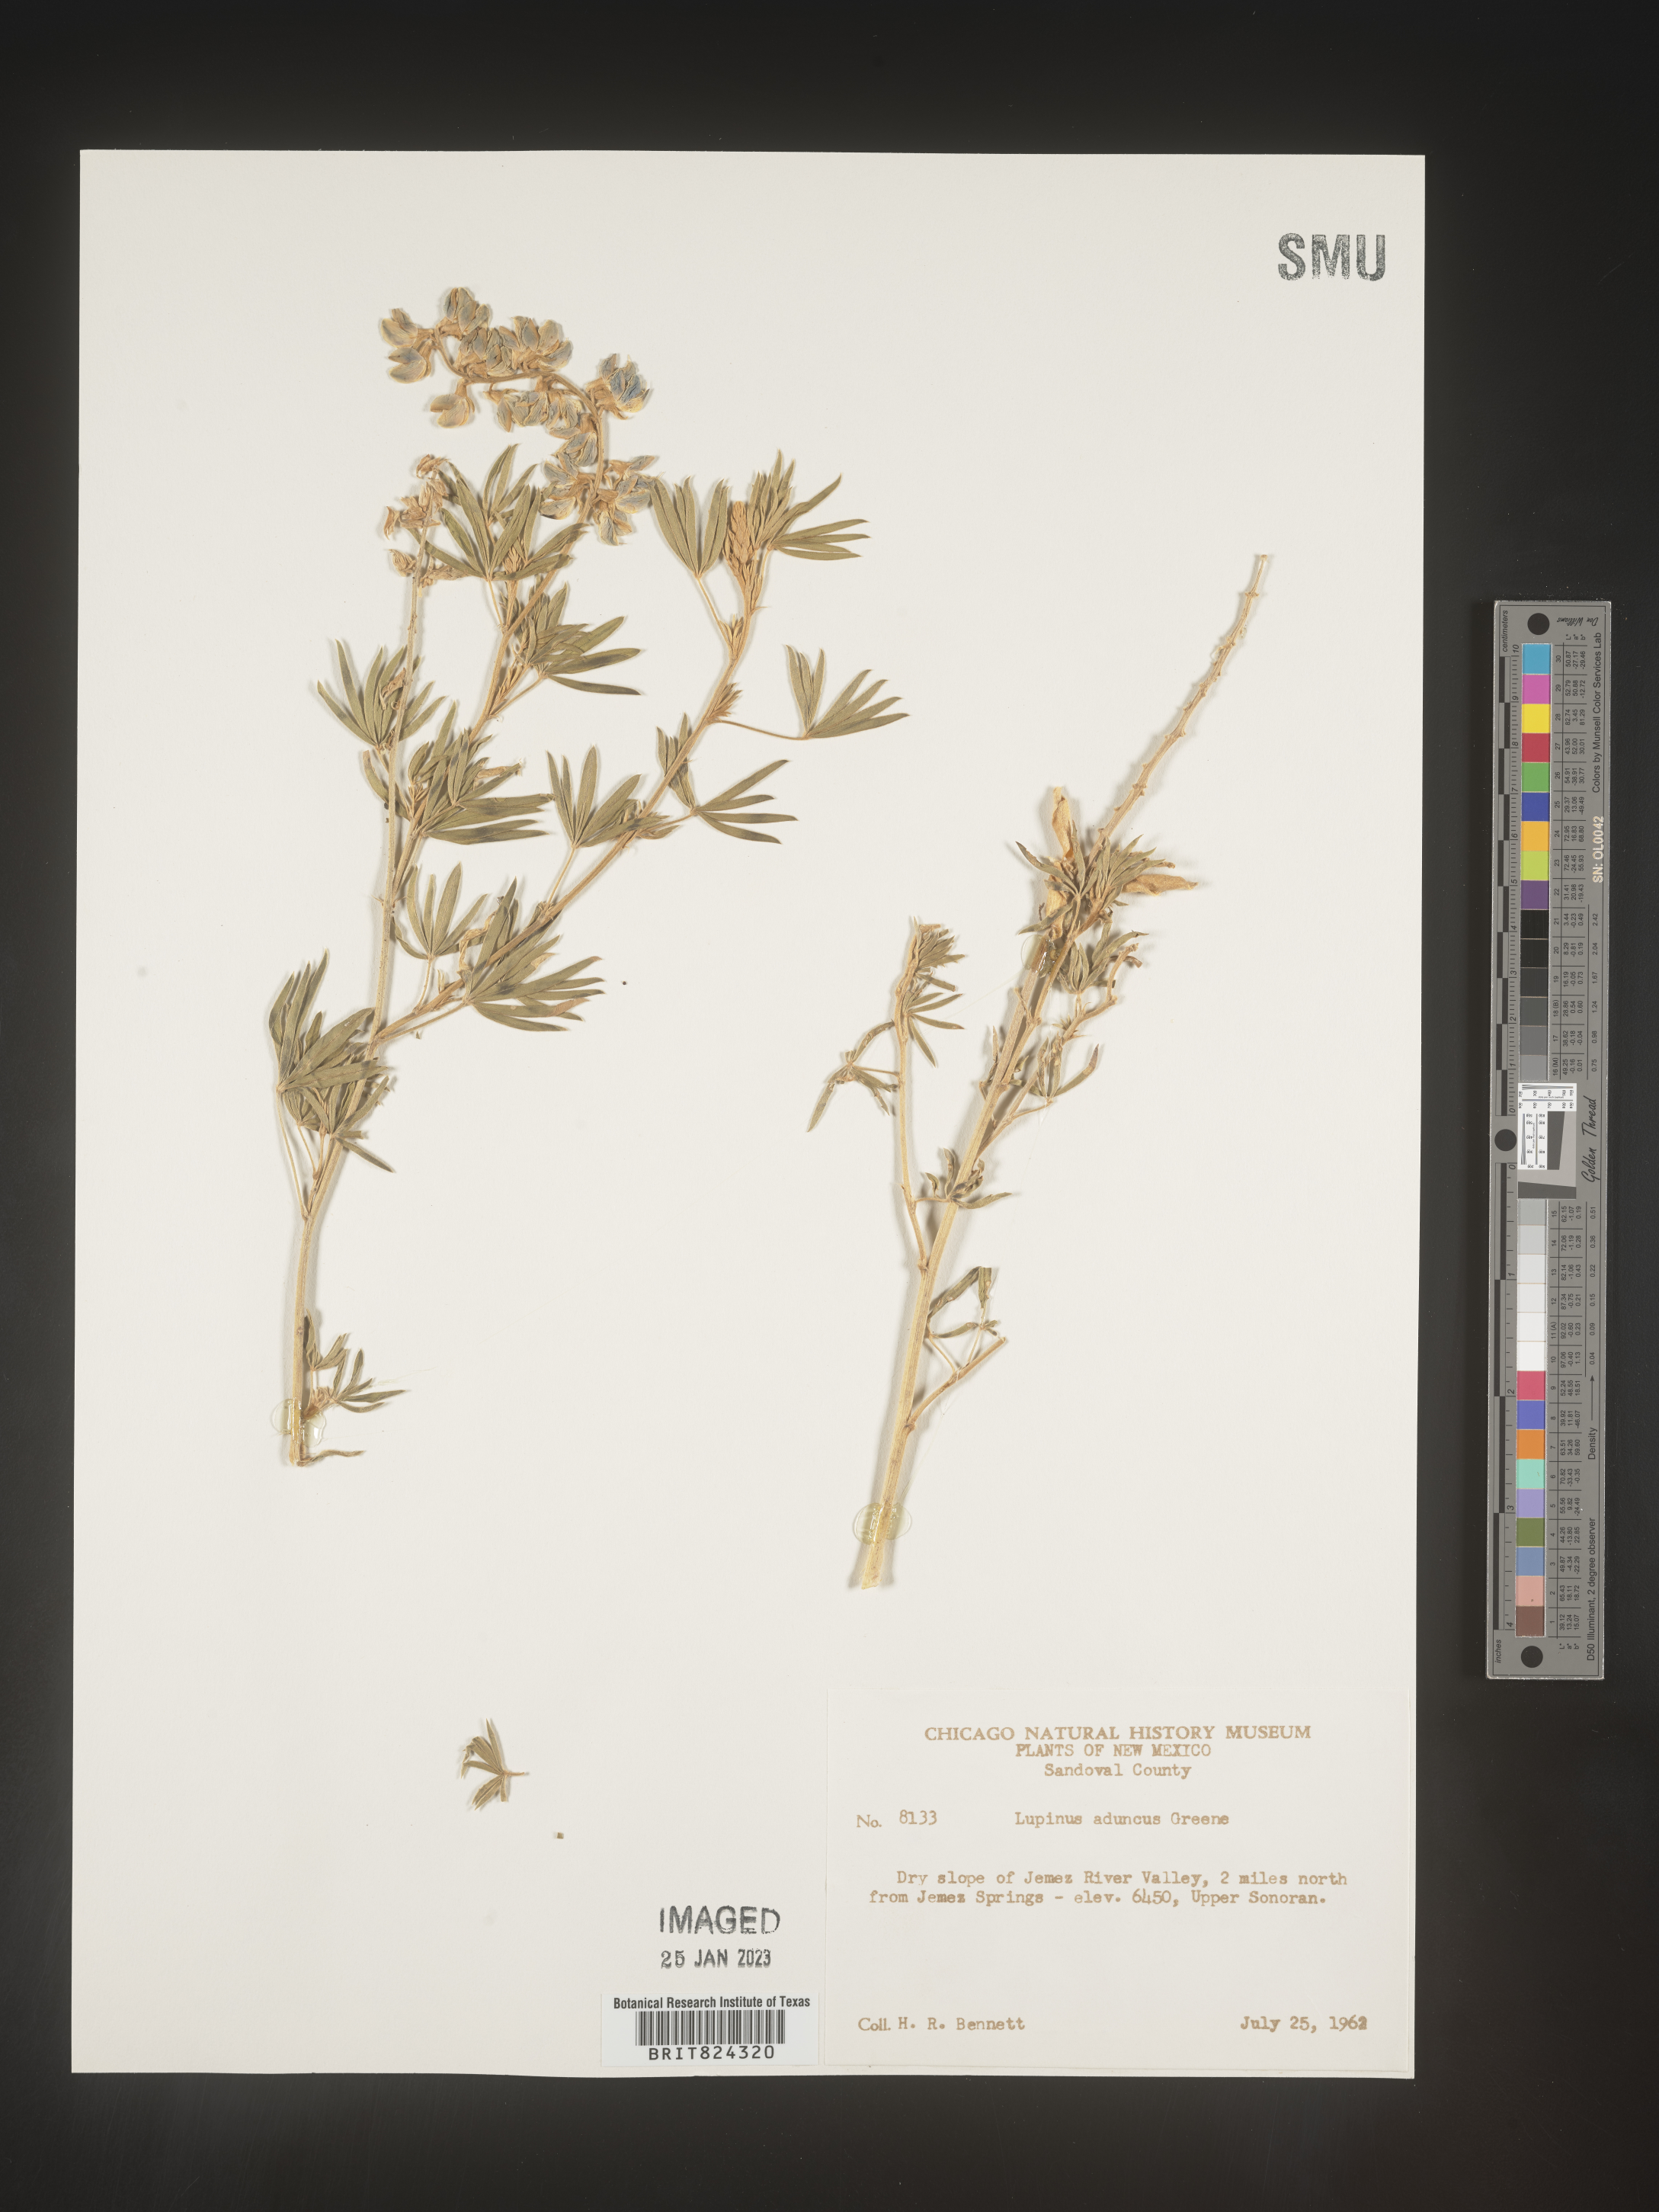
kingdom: Plantae
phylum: Tracheophyta
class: Magnoliopsida
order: Fabales
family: Fabaceae
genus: Lupinus
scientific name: Lupinus caudatus
